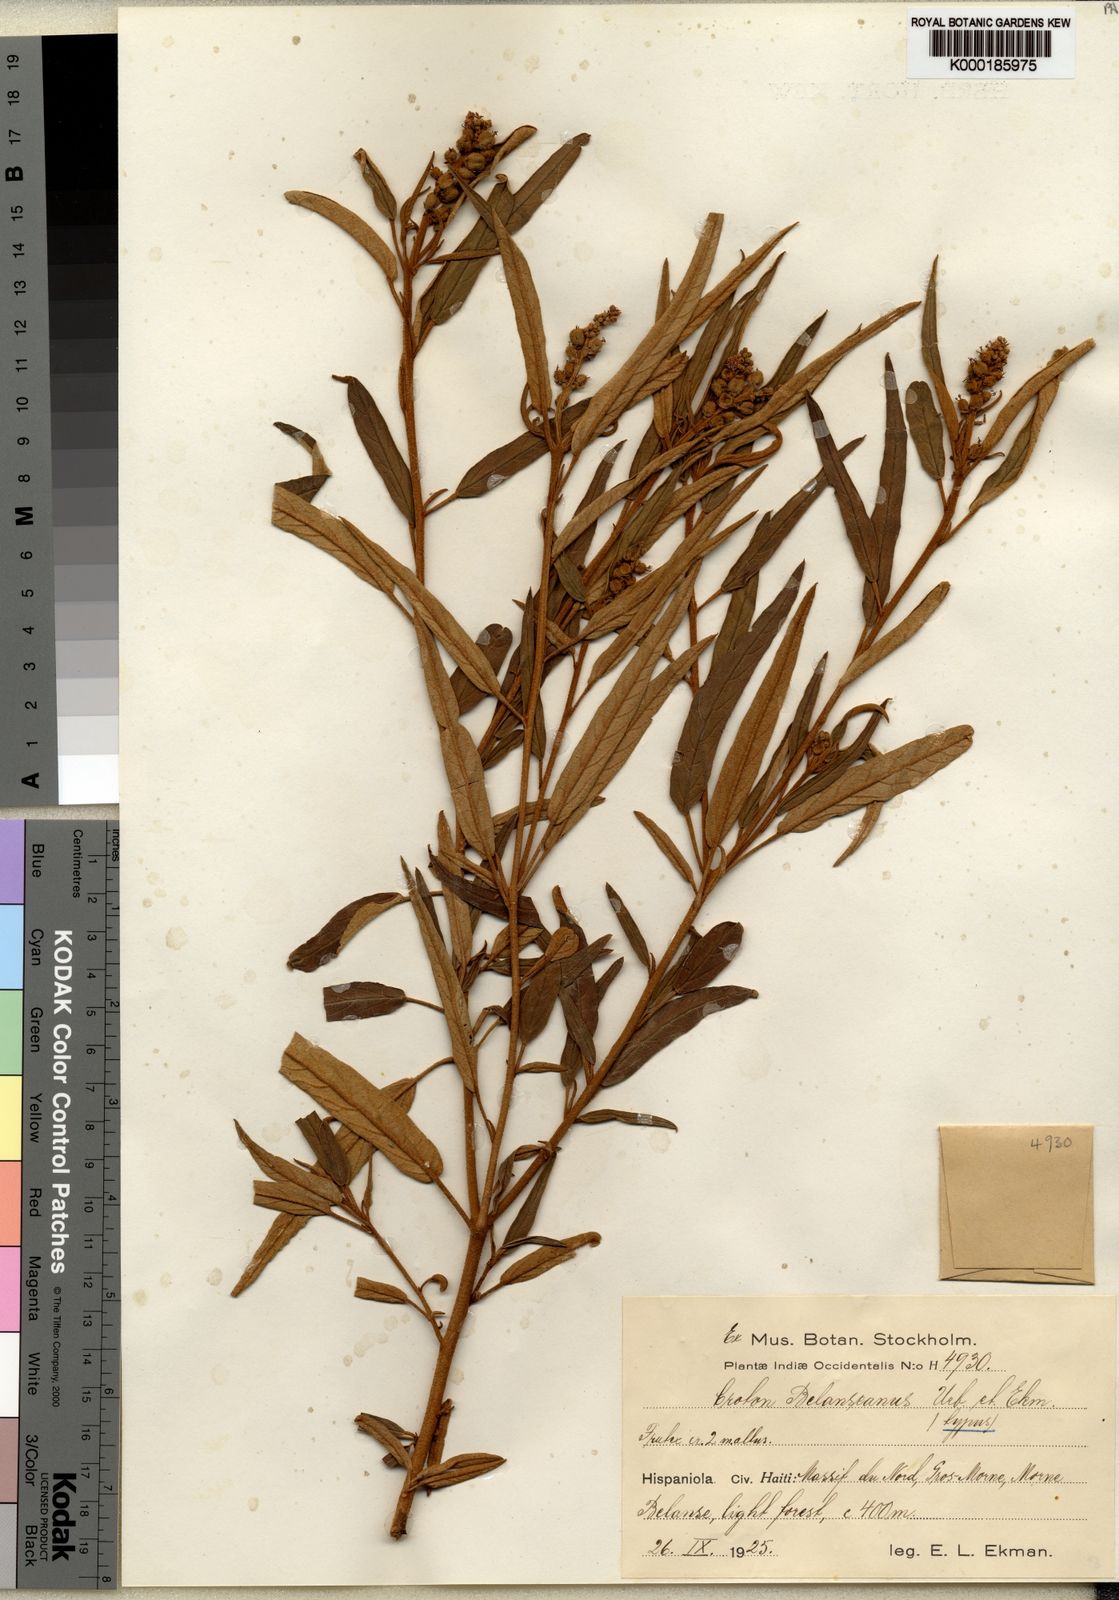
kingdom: Plantae
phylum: Tracheophyta
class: Magnoliopsida
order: Malpighiales
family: Euphorbiaceae
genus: Croton
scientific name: Croton impressus
